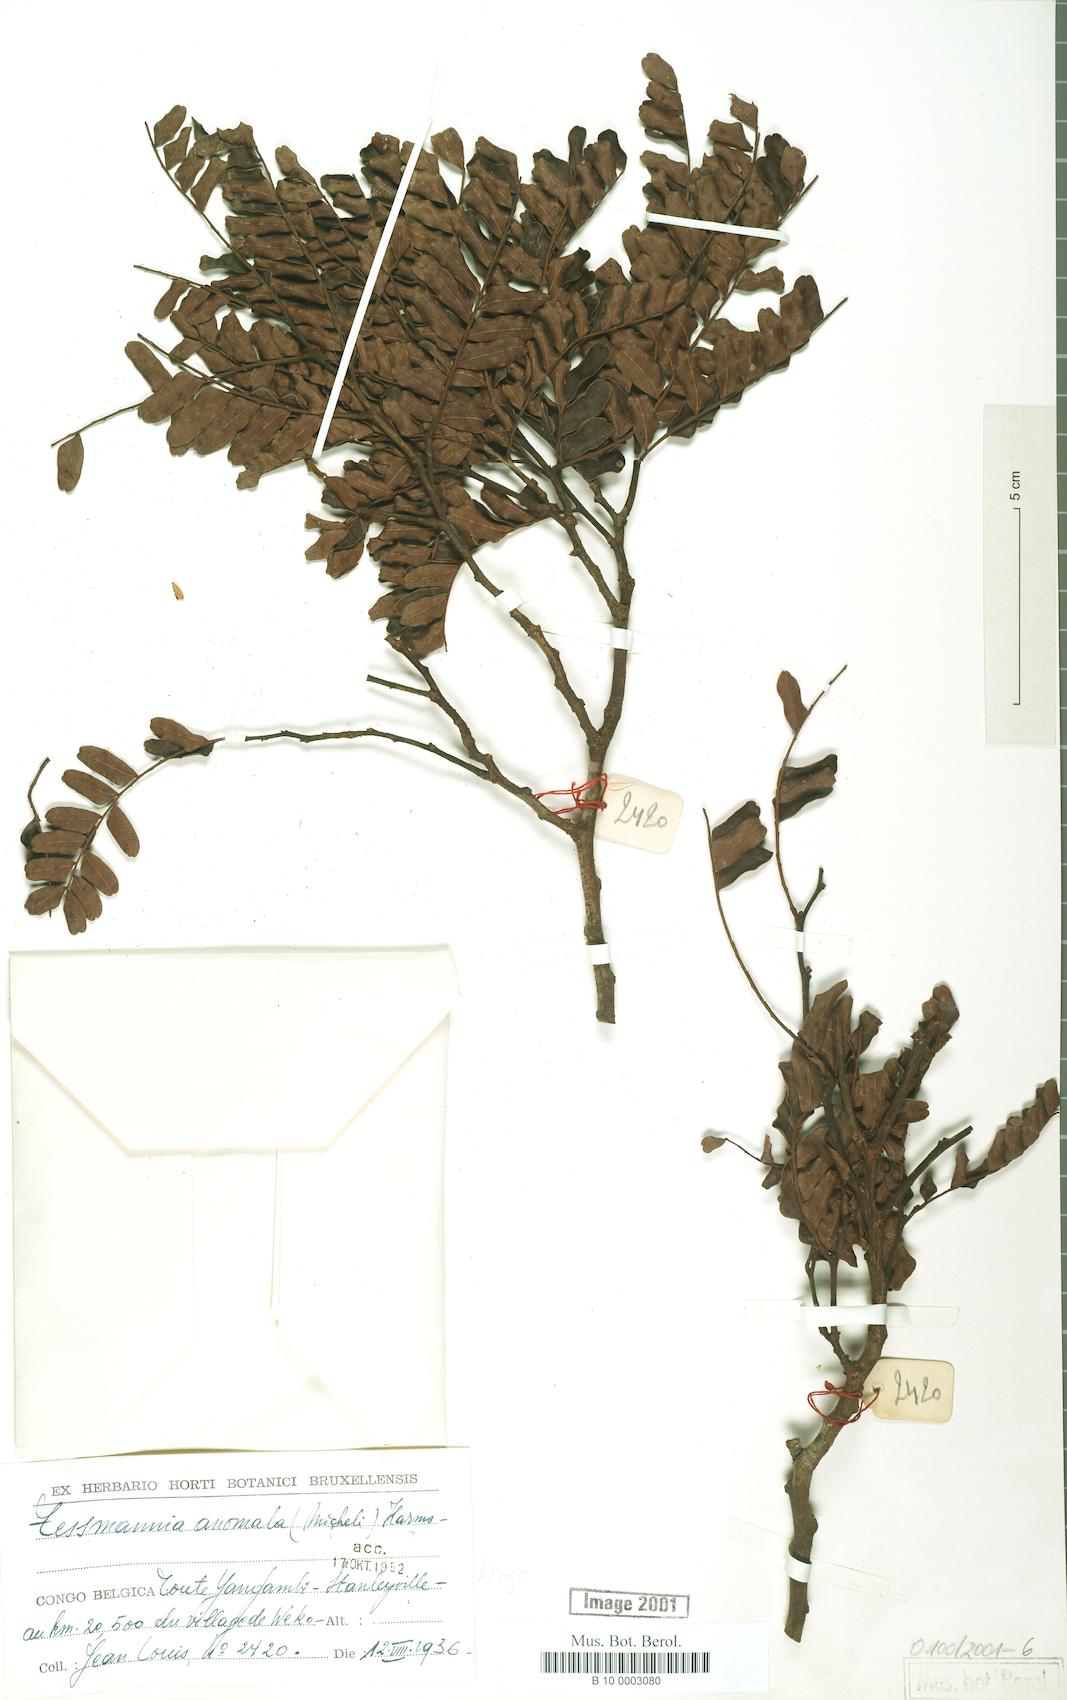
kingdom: Plantae
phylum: Tracheophyta
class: Magnoliopsida
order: Fabales
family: Fabaceae
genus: Tessmannia
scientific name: Tessmannia anomala
